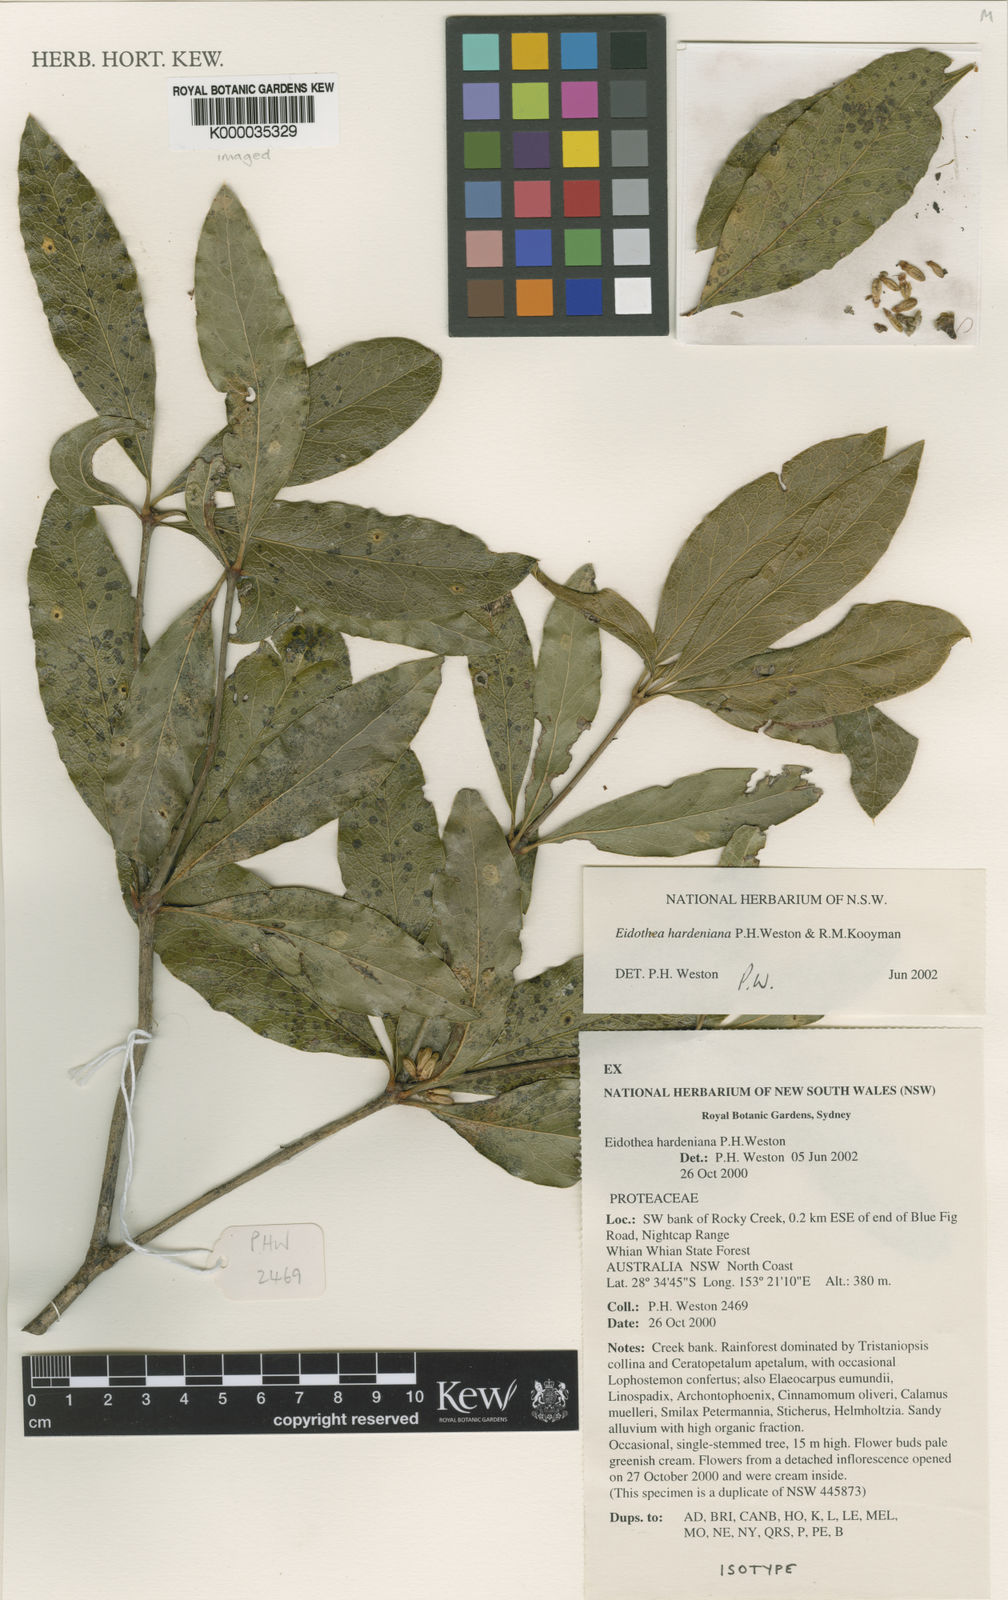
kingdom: Plantae
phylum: Tracheophyta
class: Magnoliopsida
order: Proteales
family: Proteaceae
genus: Eidothea
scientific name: Eidothea hardeniana
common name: Nightcap oak
